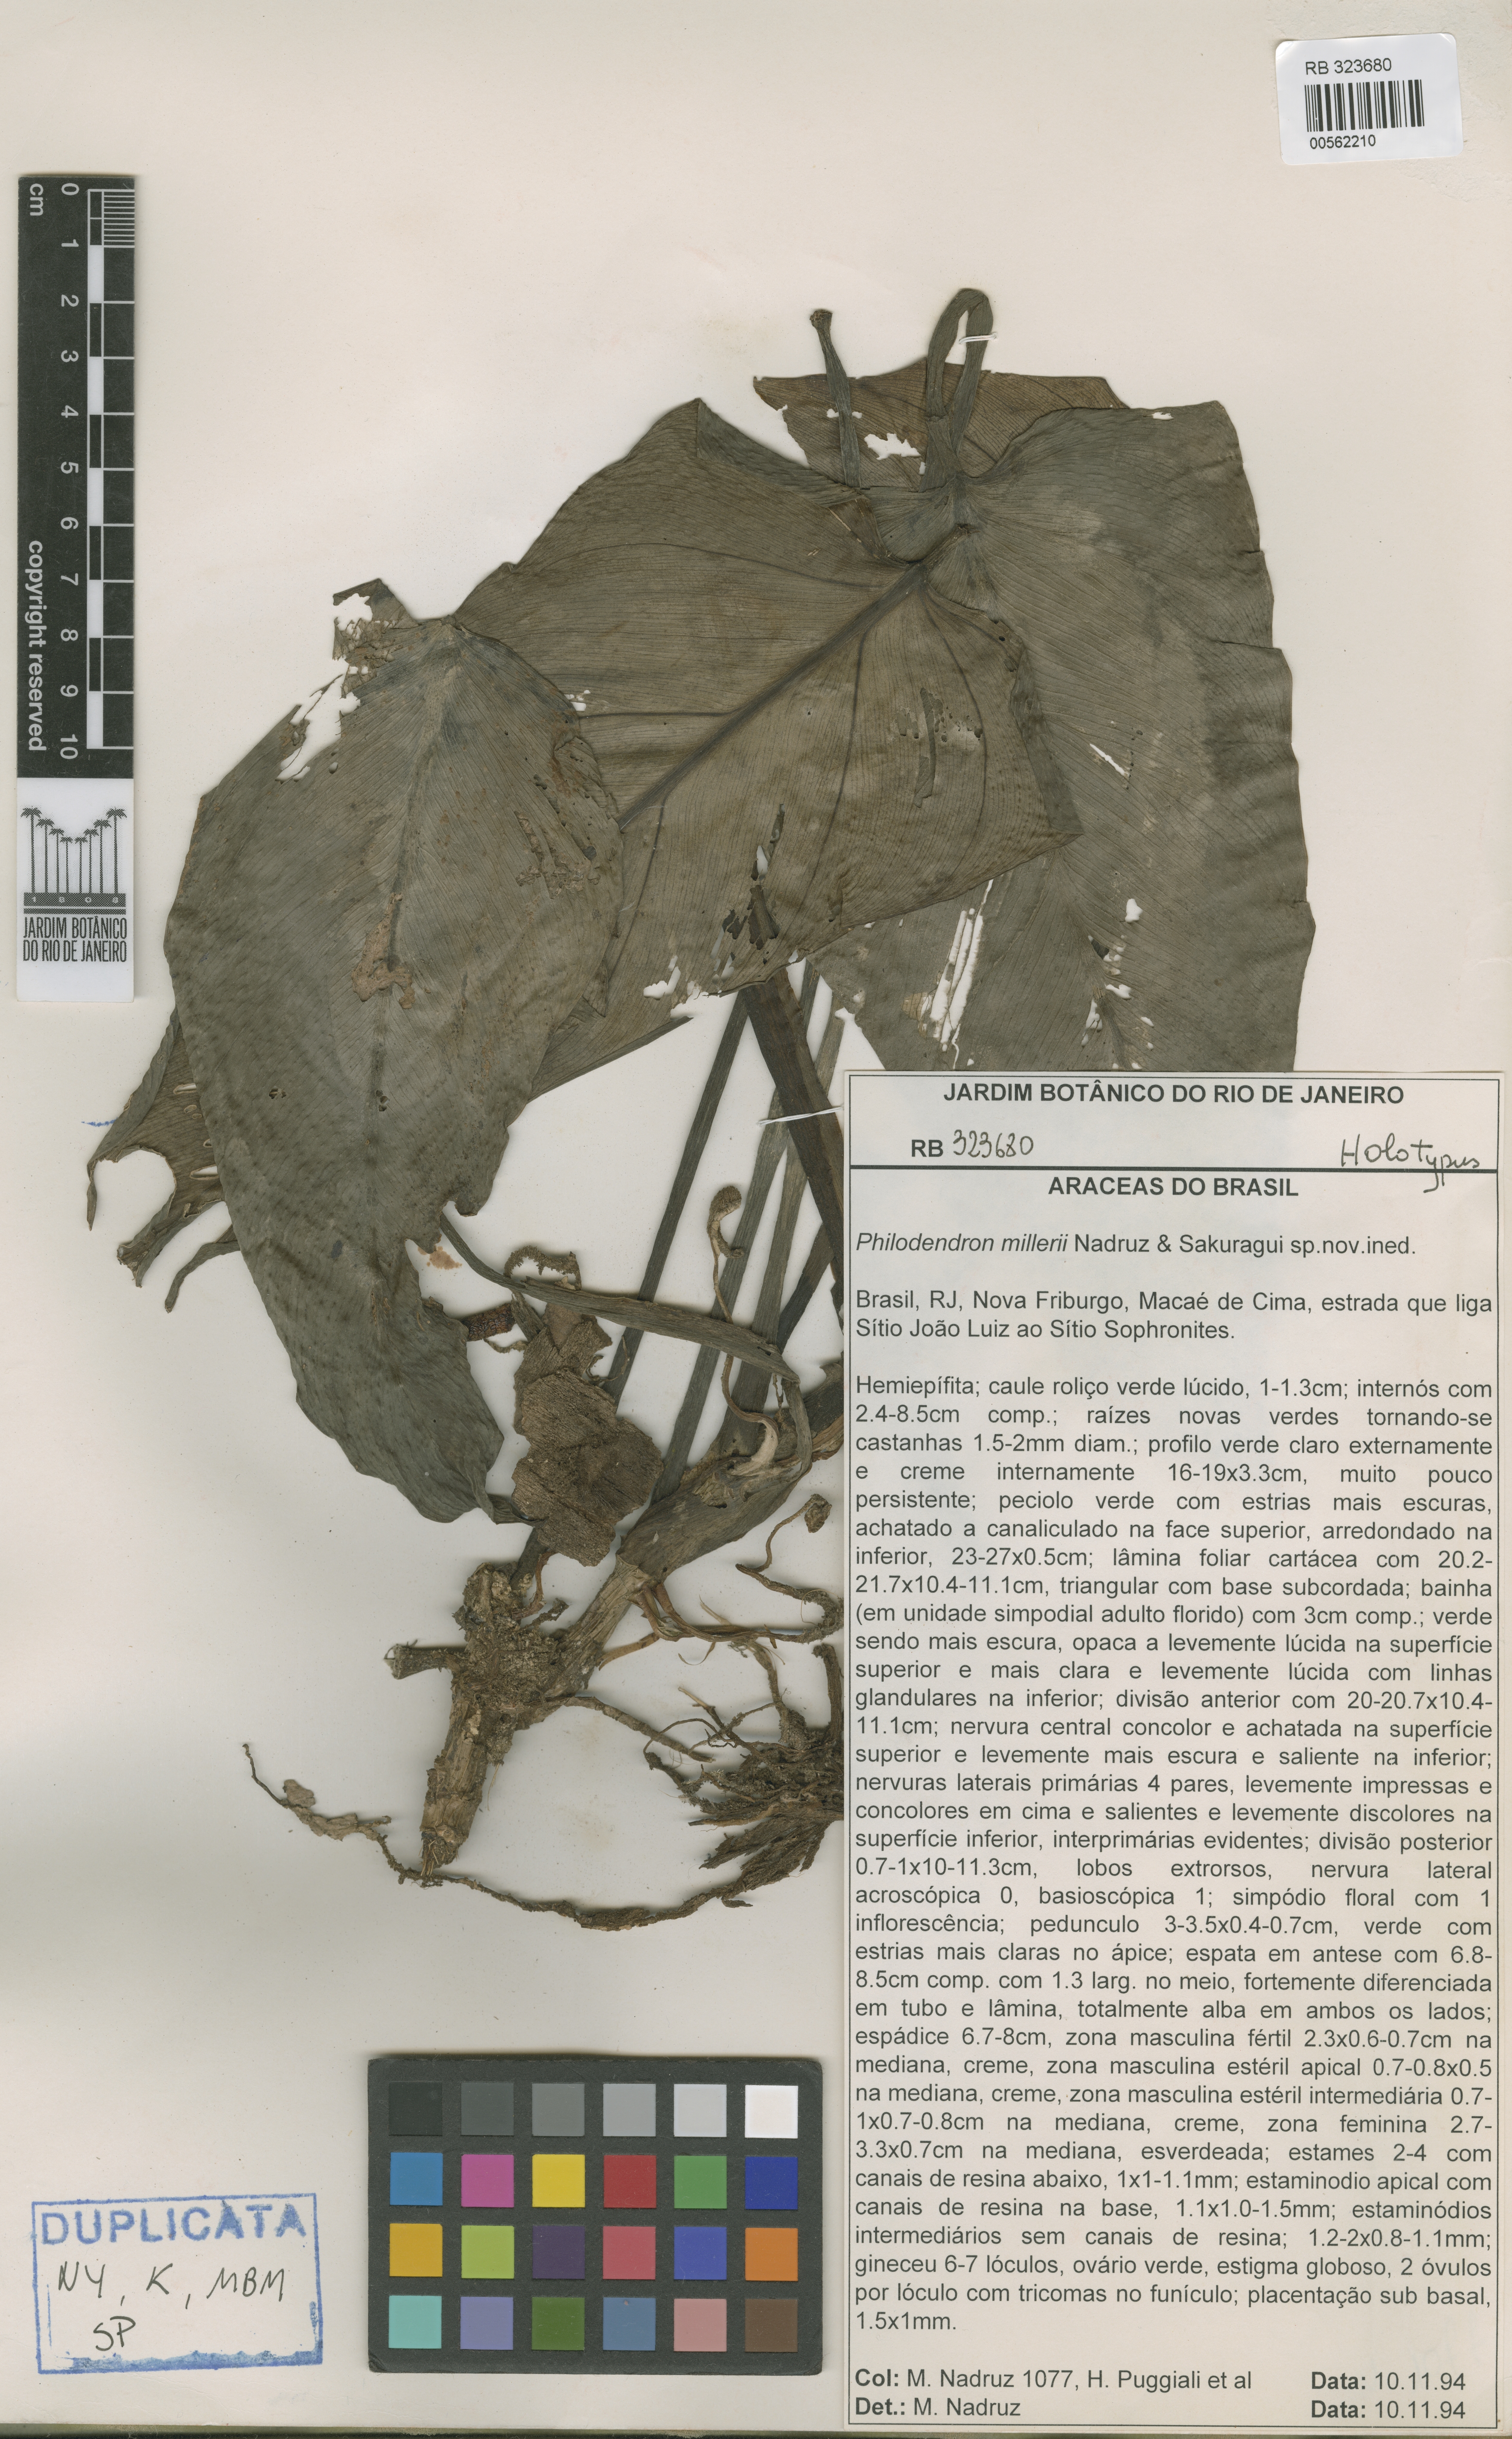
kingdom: Plantae
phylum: Tracheophyta
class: Liliopsida
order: Alismatales
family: Araceae
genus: Philodendron
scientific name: Philodendron millerianum
